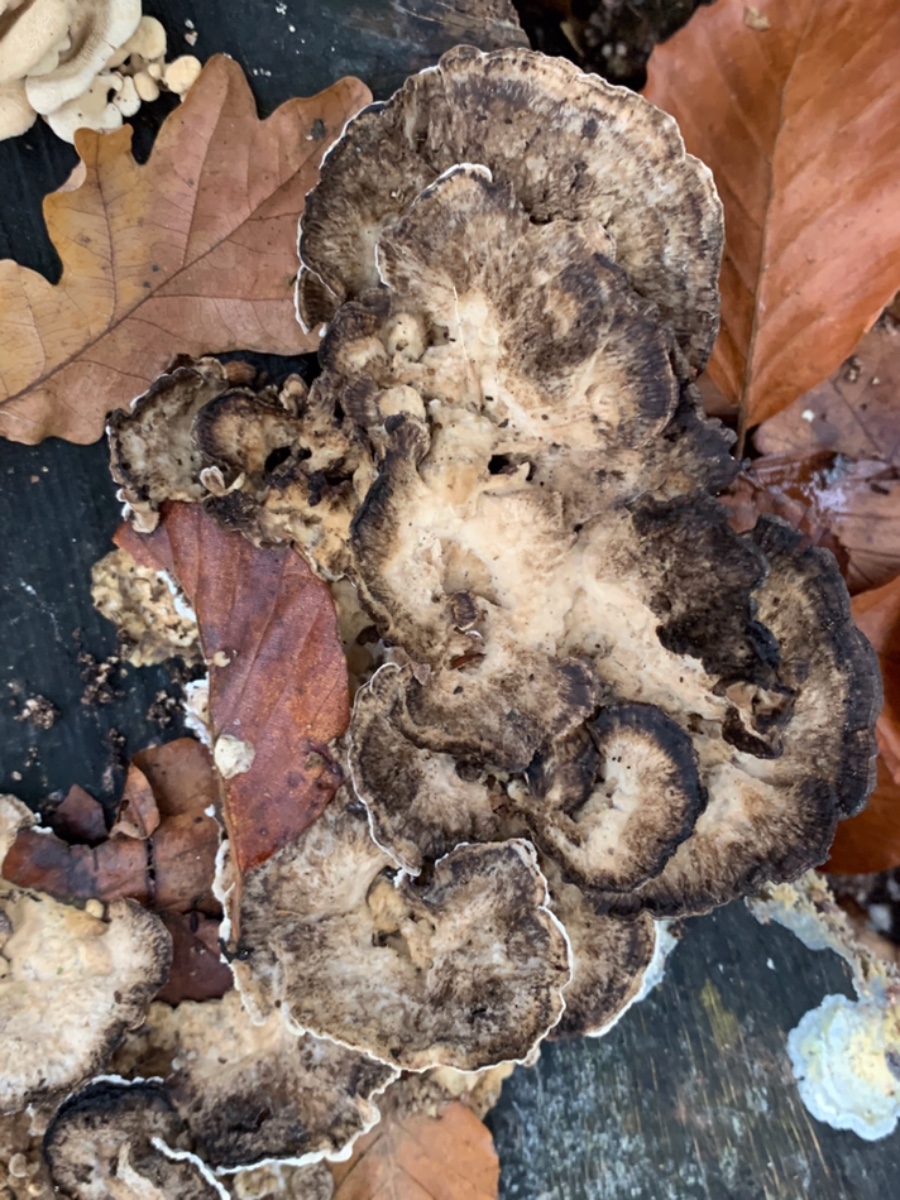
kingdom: Fungi
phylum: Basidiomycota
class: Agaricomycetes
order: Polyporales
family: Meripilaceae
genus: Meripilus
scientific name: Meripilus giganteus
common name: kæmpeporesvamp
